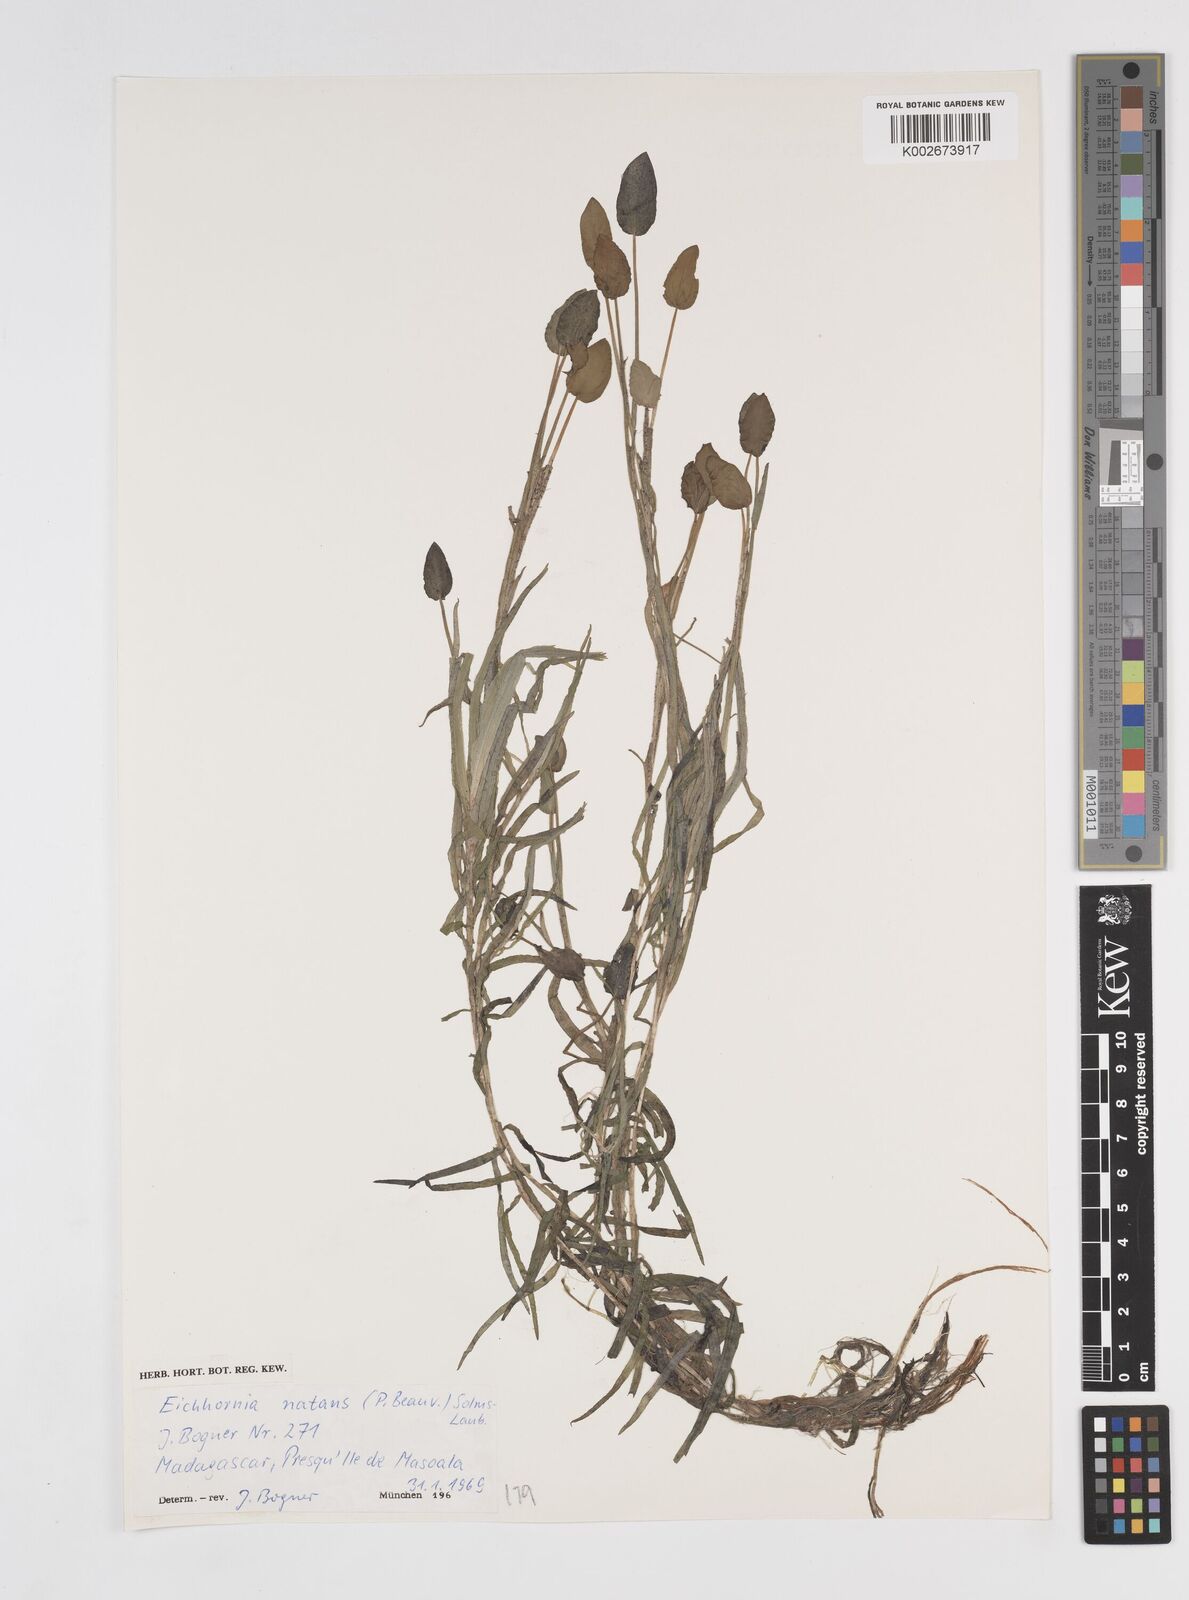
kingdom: Plantae
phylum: Tracheophyta
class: Liliopsida
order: Commelinales
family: Pontederiaceae
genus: Pontederia
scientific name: Pontederia natans
